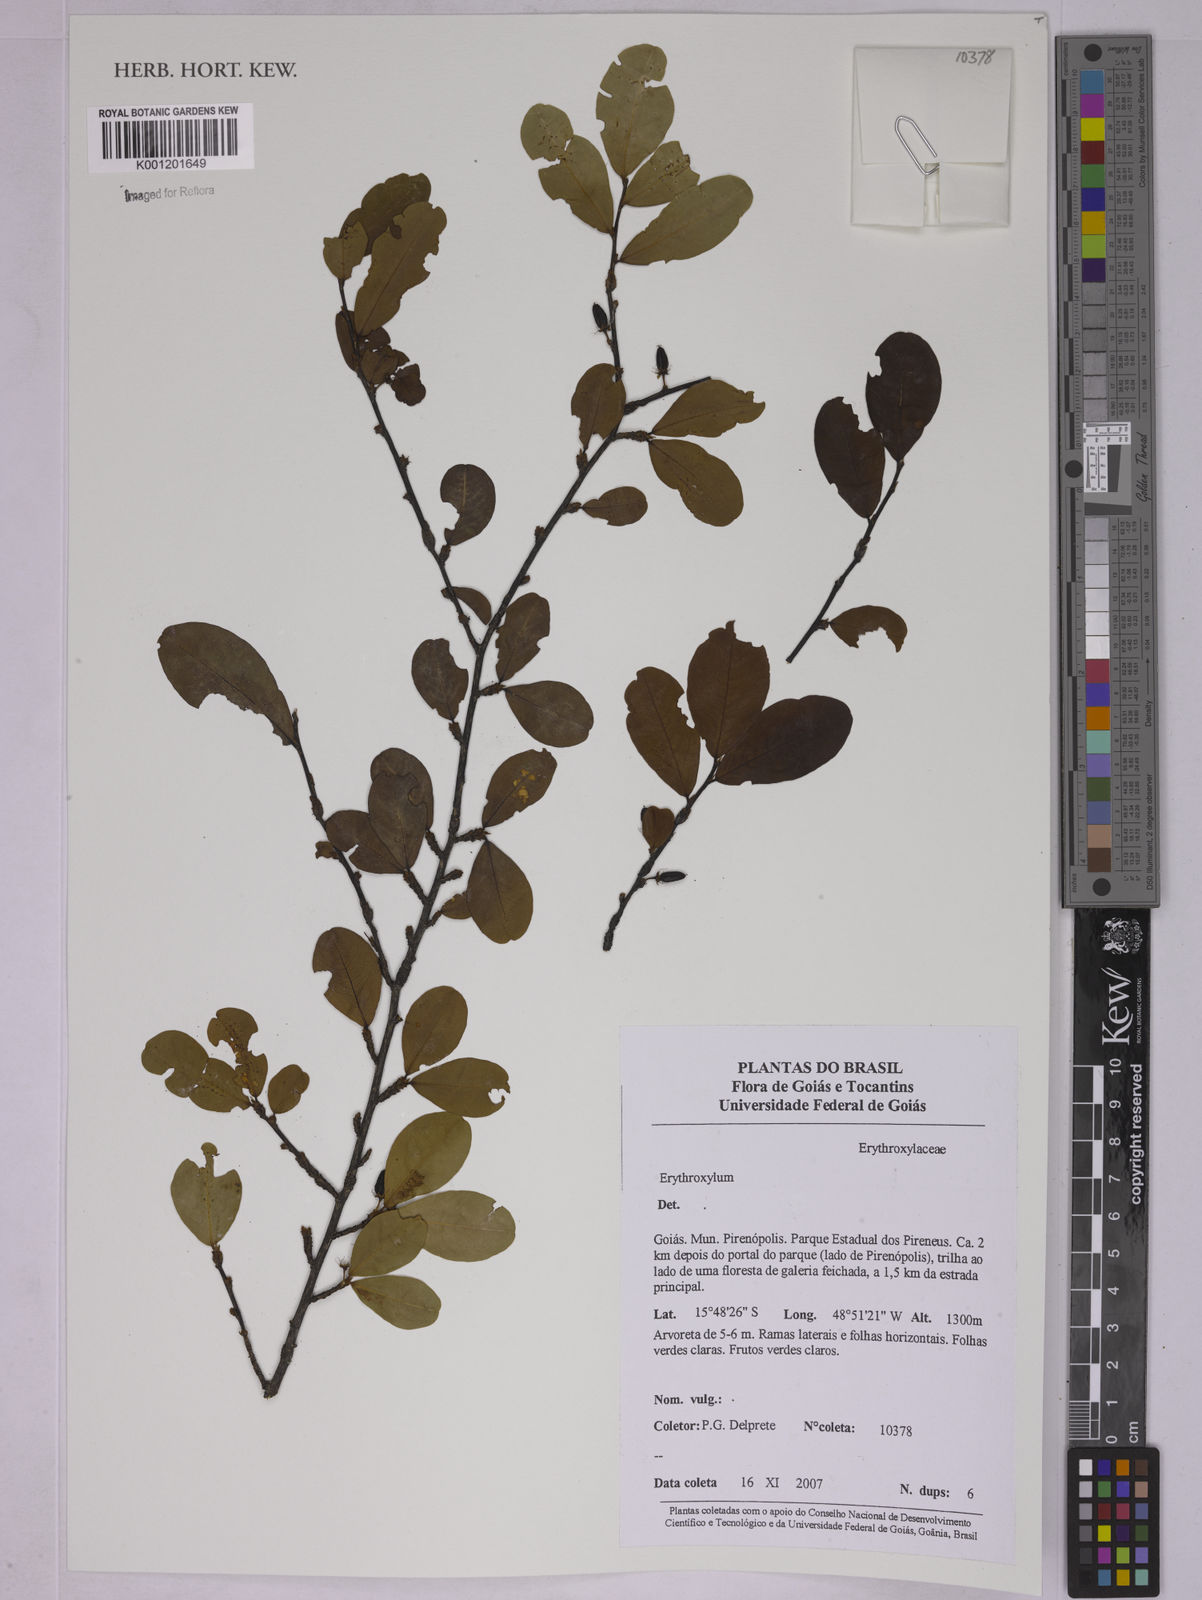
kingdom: Plantae
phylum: Tracheophyta
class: Magnoliopsida
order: Malpighiales
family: Erythroxylaceae
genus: Erythroxylum
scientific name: Erythroxylum
